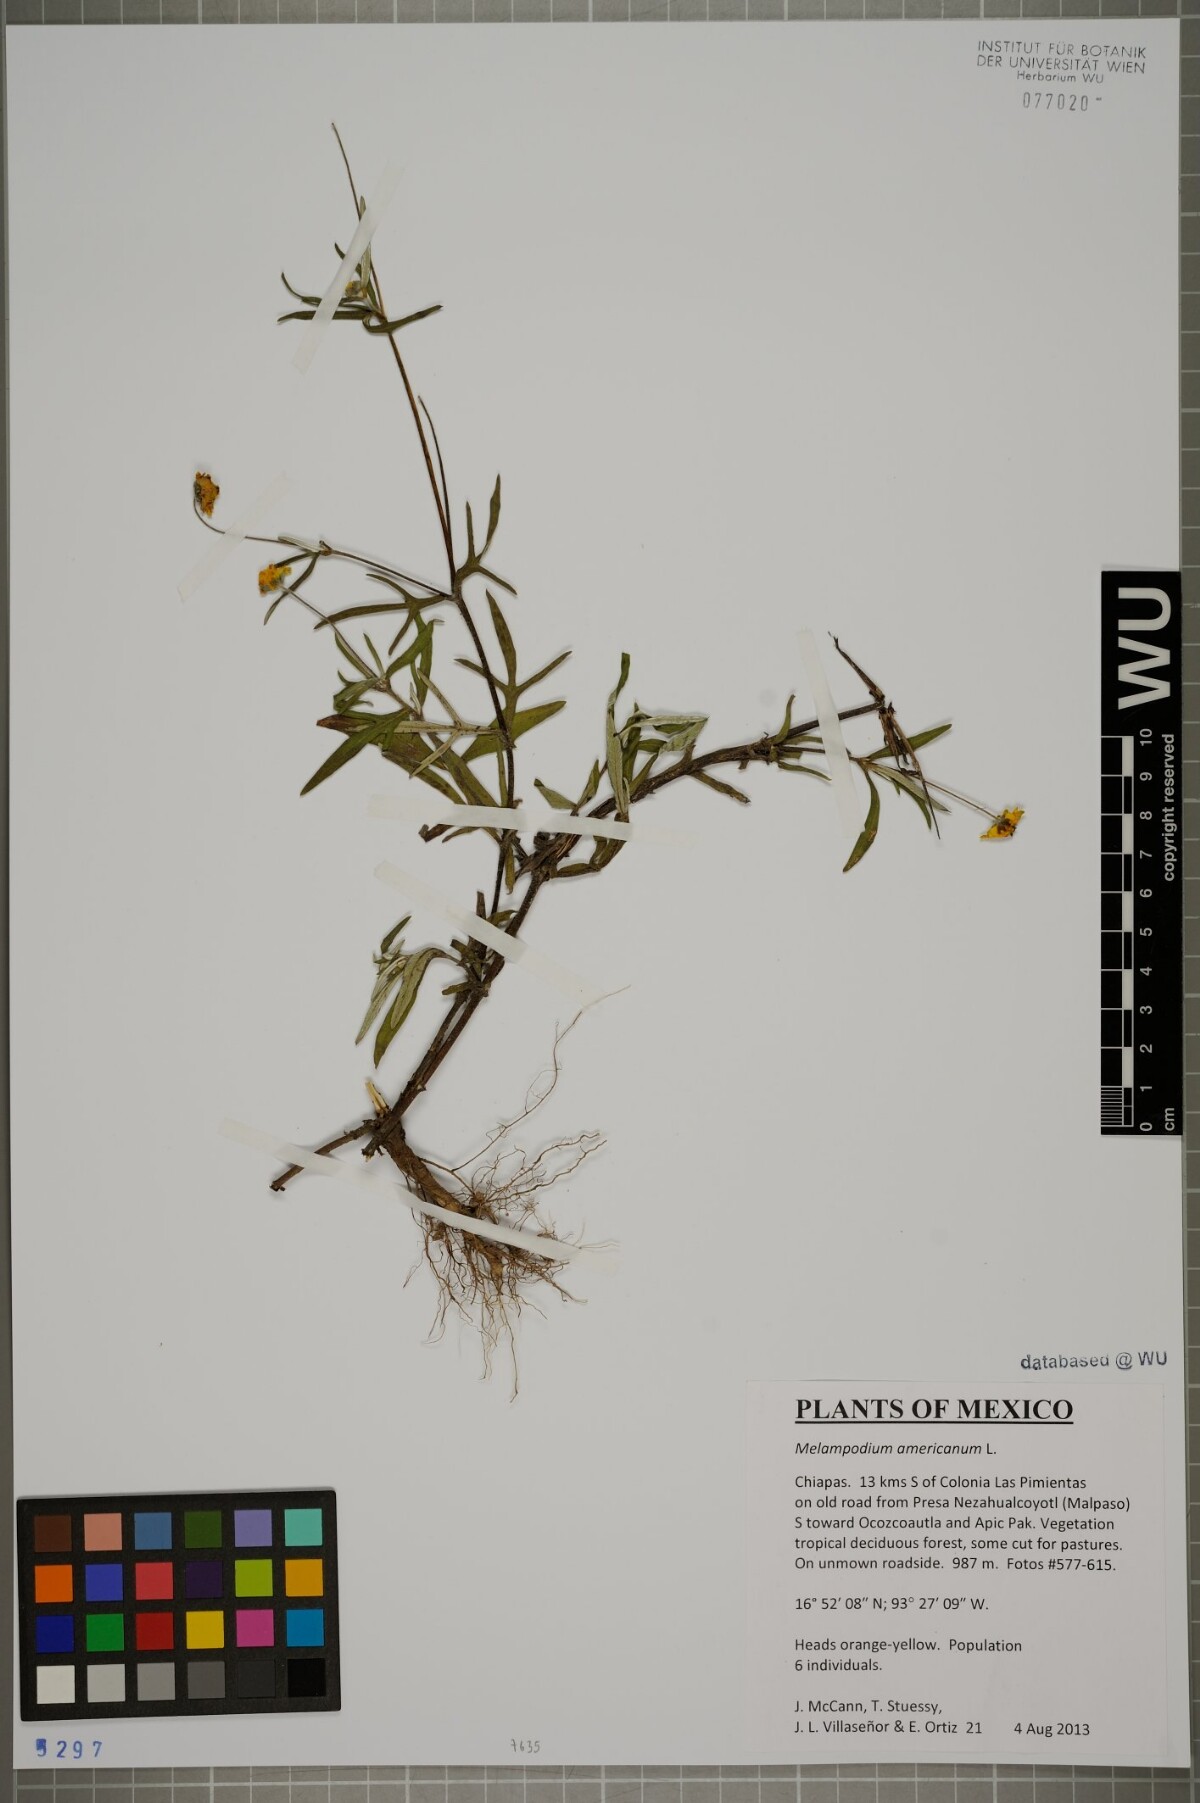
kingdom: Plantae
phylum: Tracheophyta
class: Magnoliopsida
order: Asterales
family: Asteraceae
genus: Melampodium
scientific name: Melampodium americanum
